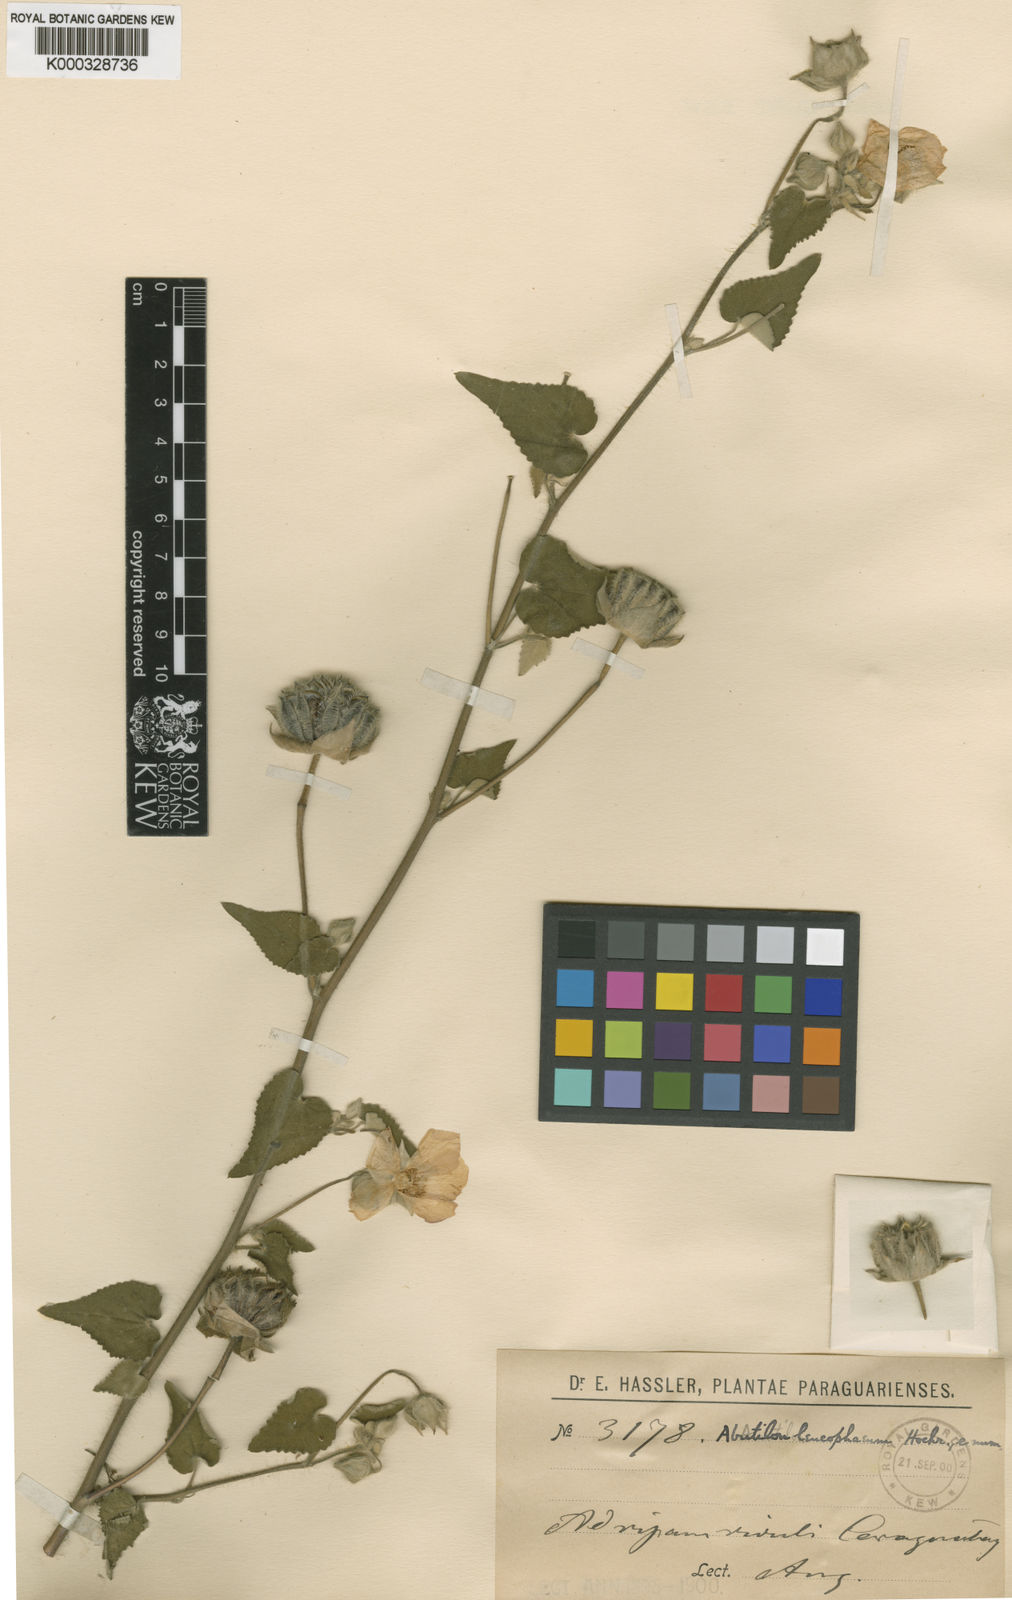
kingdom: Plantae
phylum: Tracheophyta
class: Magnoliopsida
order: Malvales
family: Malvaceae
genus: Abutilon
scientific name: Abutilon hulseanum
